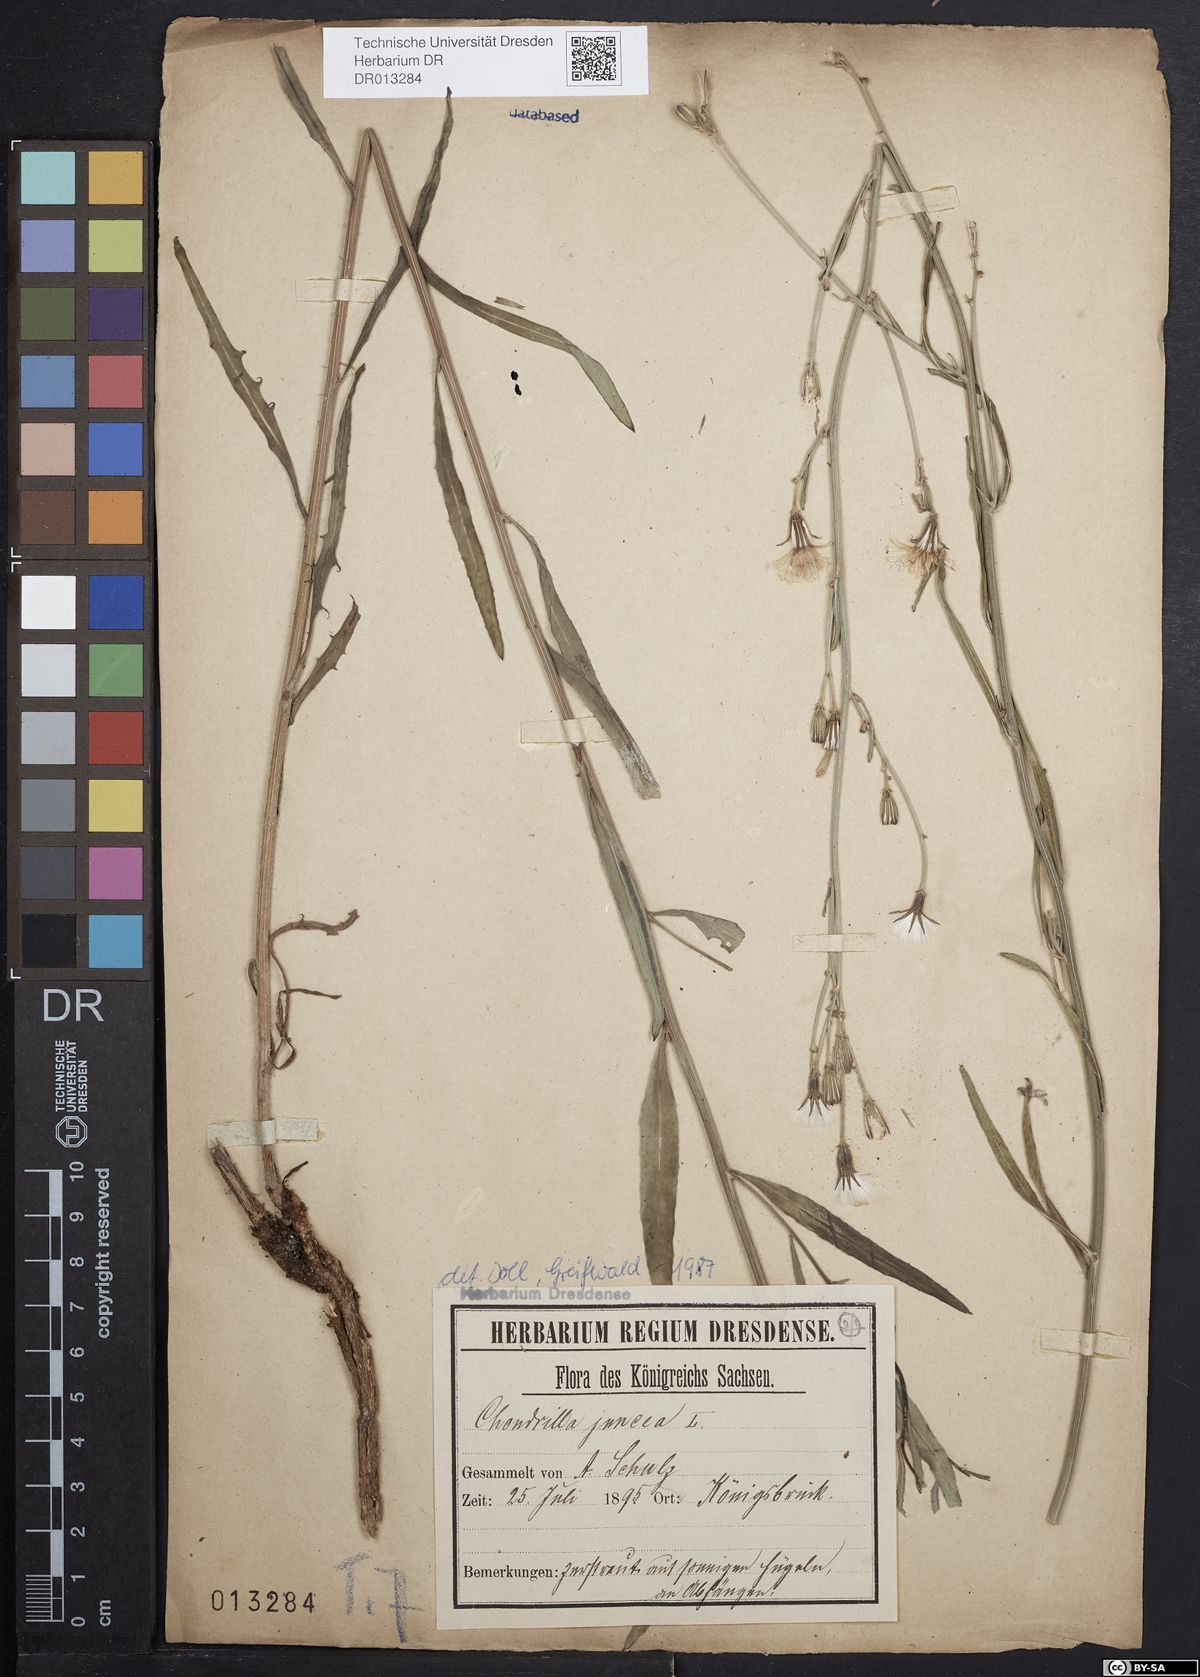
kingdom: Plantae
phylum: Tracheophyta
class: Magnoliopsida
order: Asterales
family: Asteraceae
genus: Chondrilla
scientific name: Chondrilla juncea
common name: Skeleton weed
